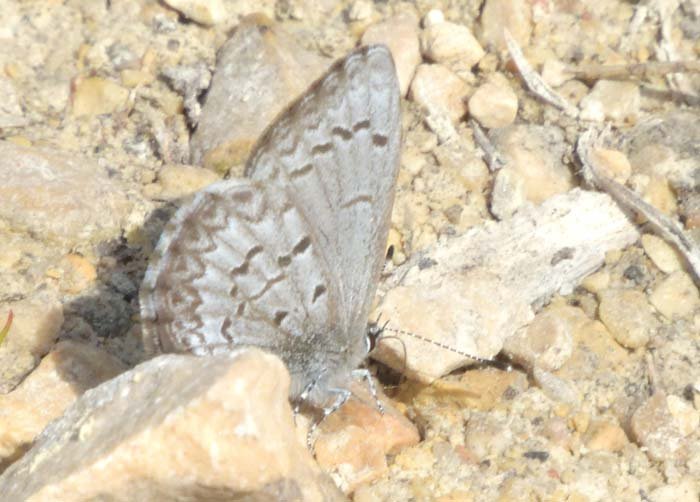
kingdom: Animalia
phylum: Arthropoda
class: Insecta
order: Lepidoptera
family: Lycaenidae
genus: Celastrina
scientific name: Celastrina lucia
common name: Northern Spring Azure
